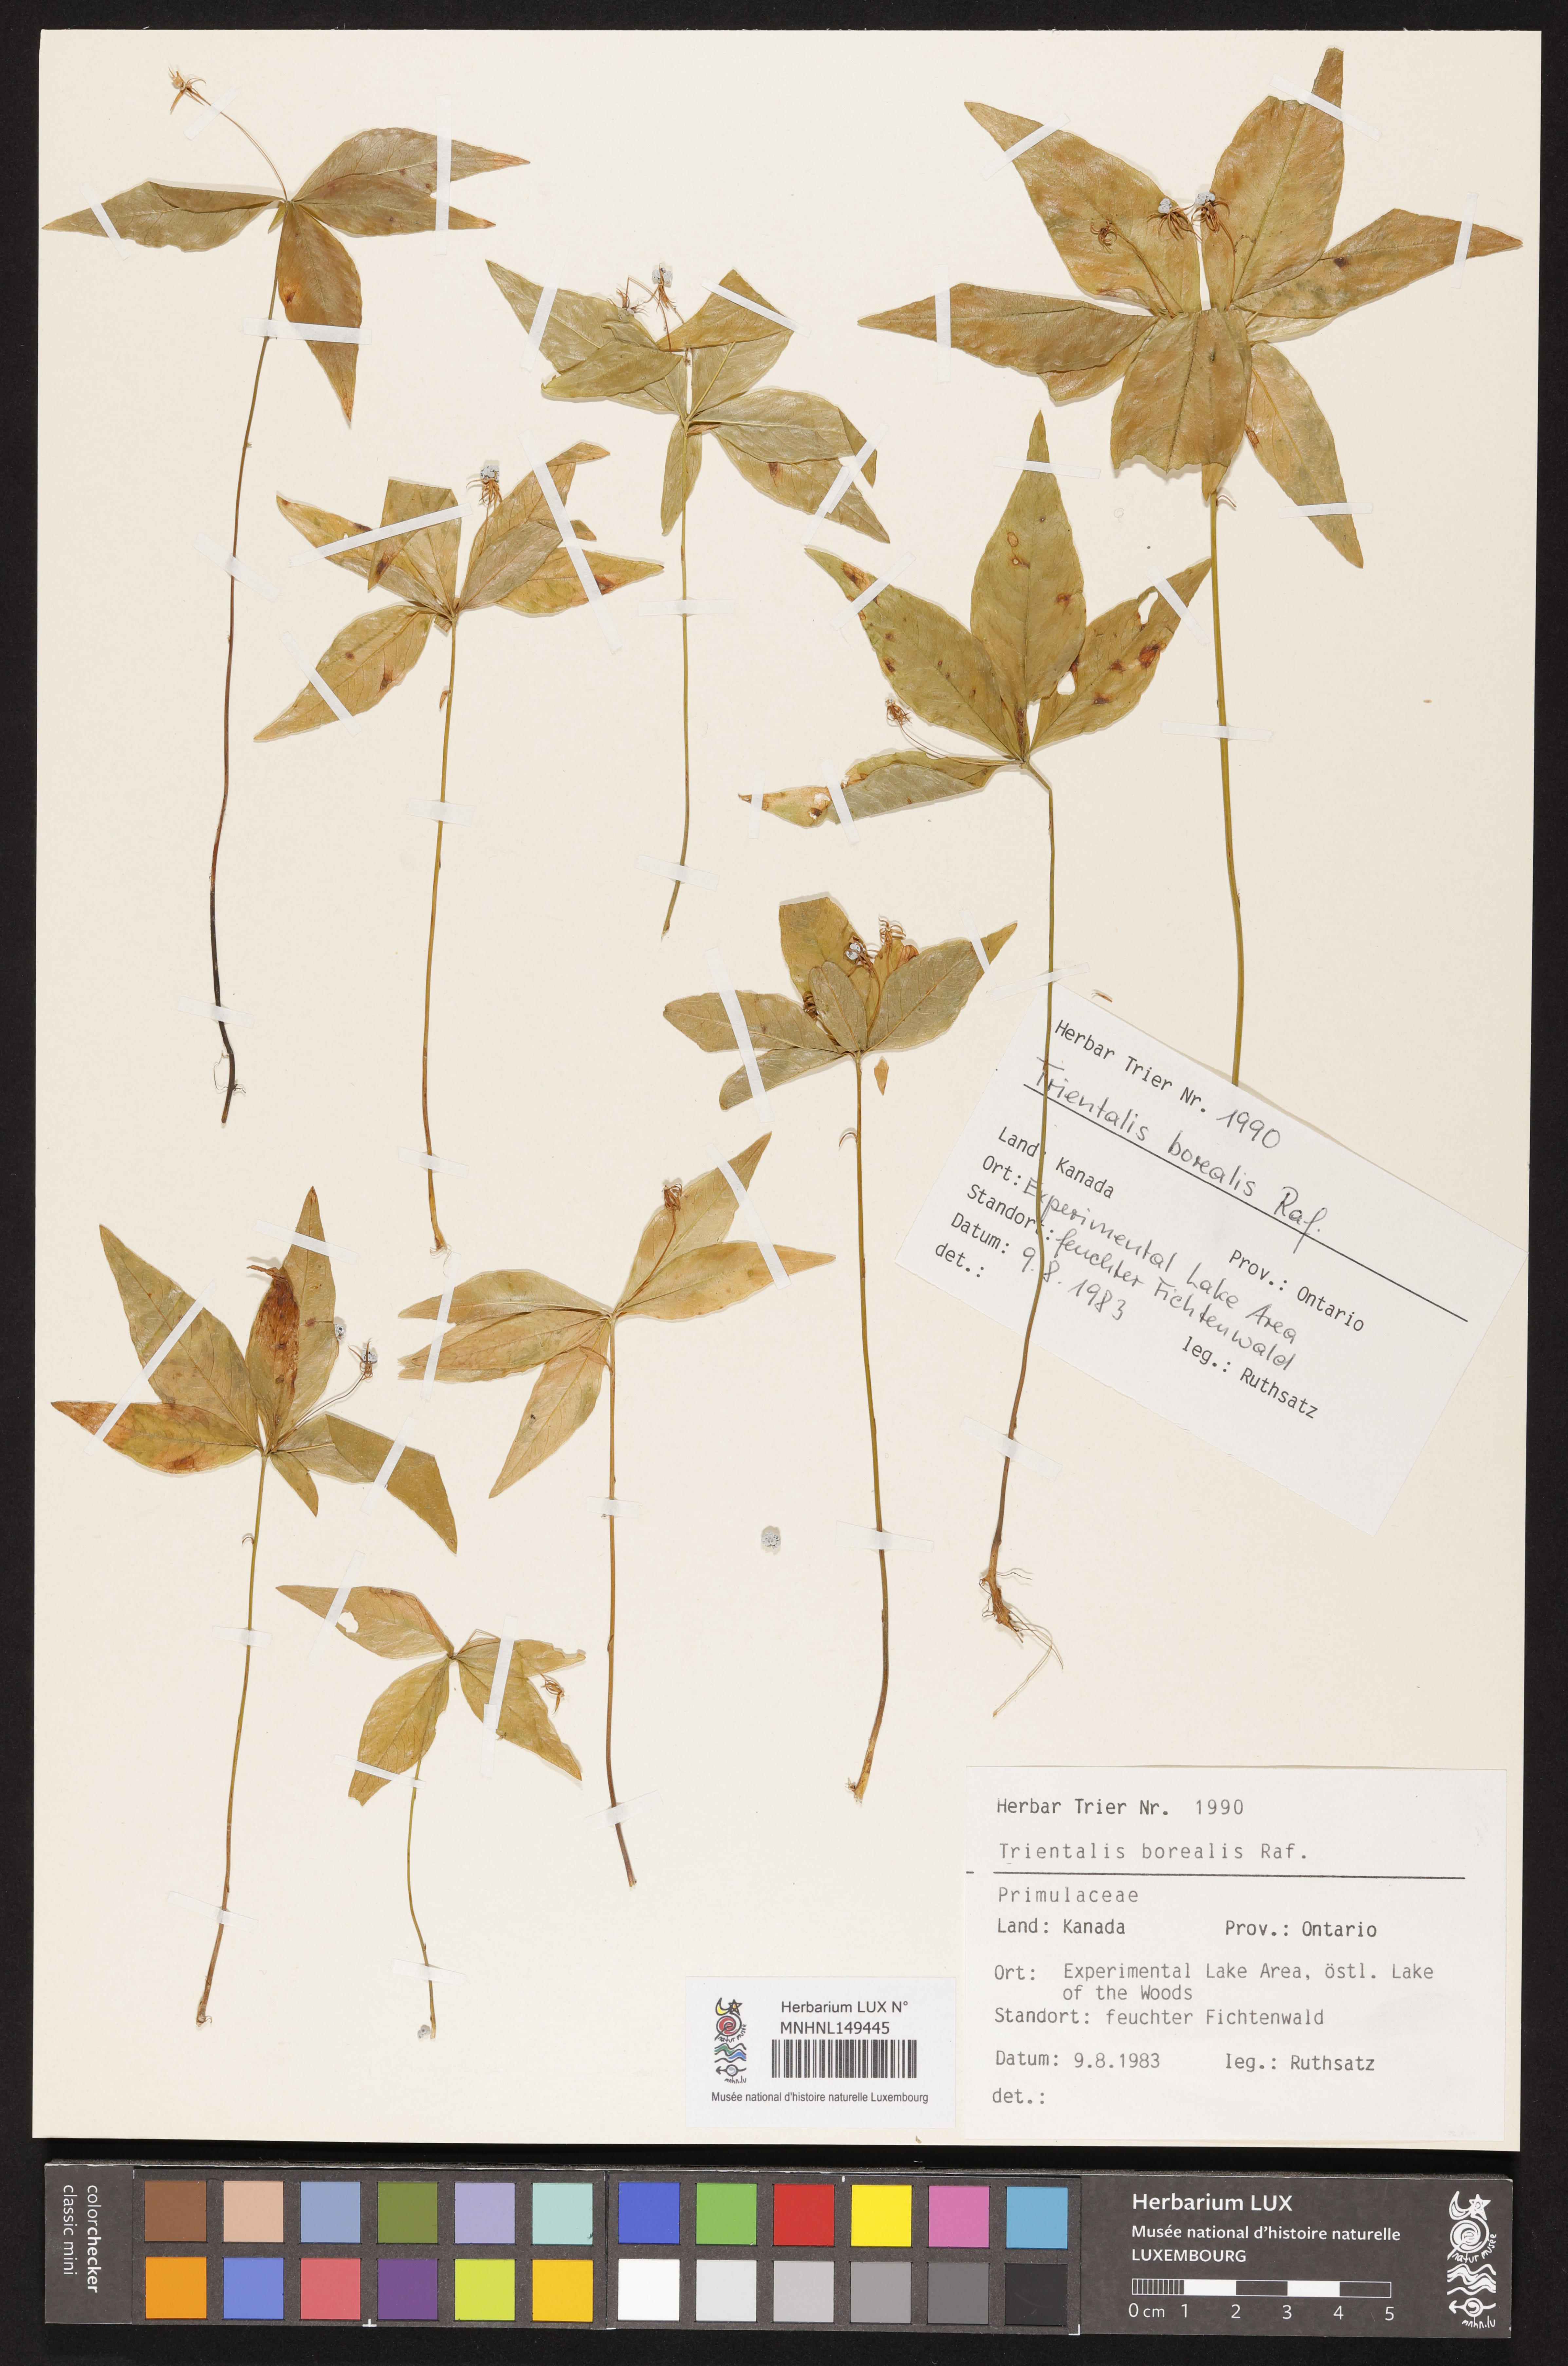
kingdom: Plantae
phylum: Tracheophyta
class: Magnoliopsida
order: Ericales
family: Primulaceae
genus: Lysimachia
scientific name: Lysimachia borealis
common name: American starflower
